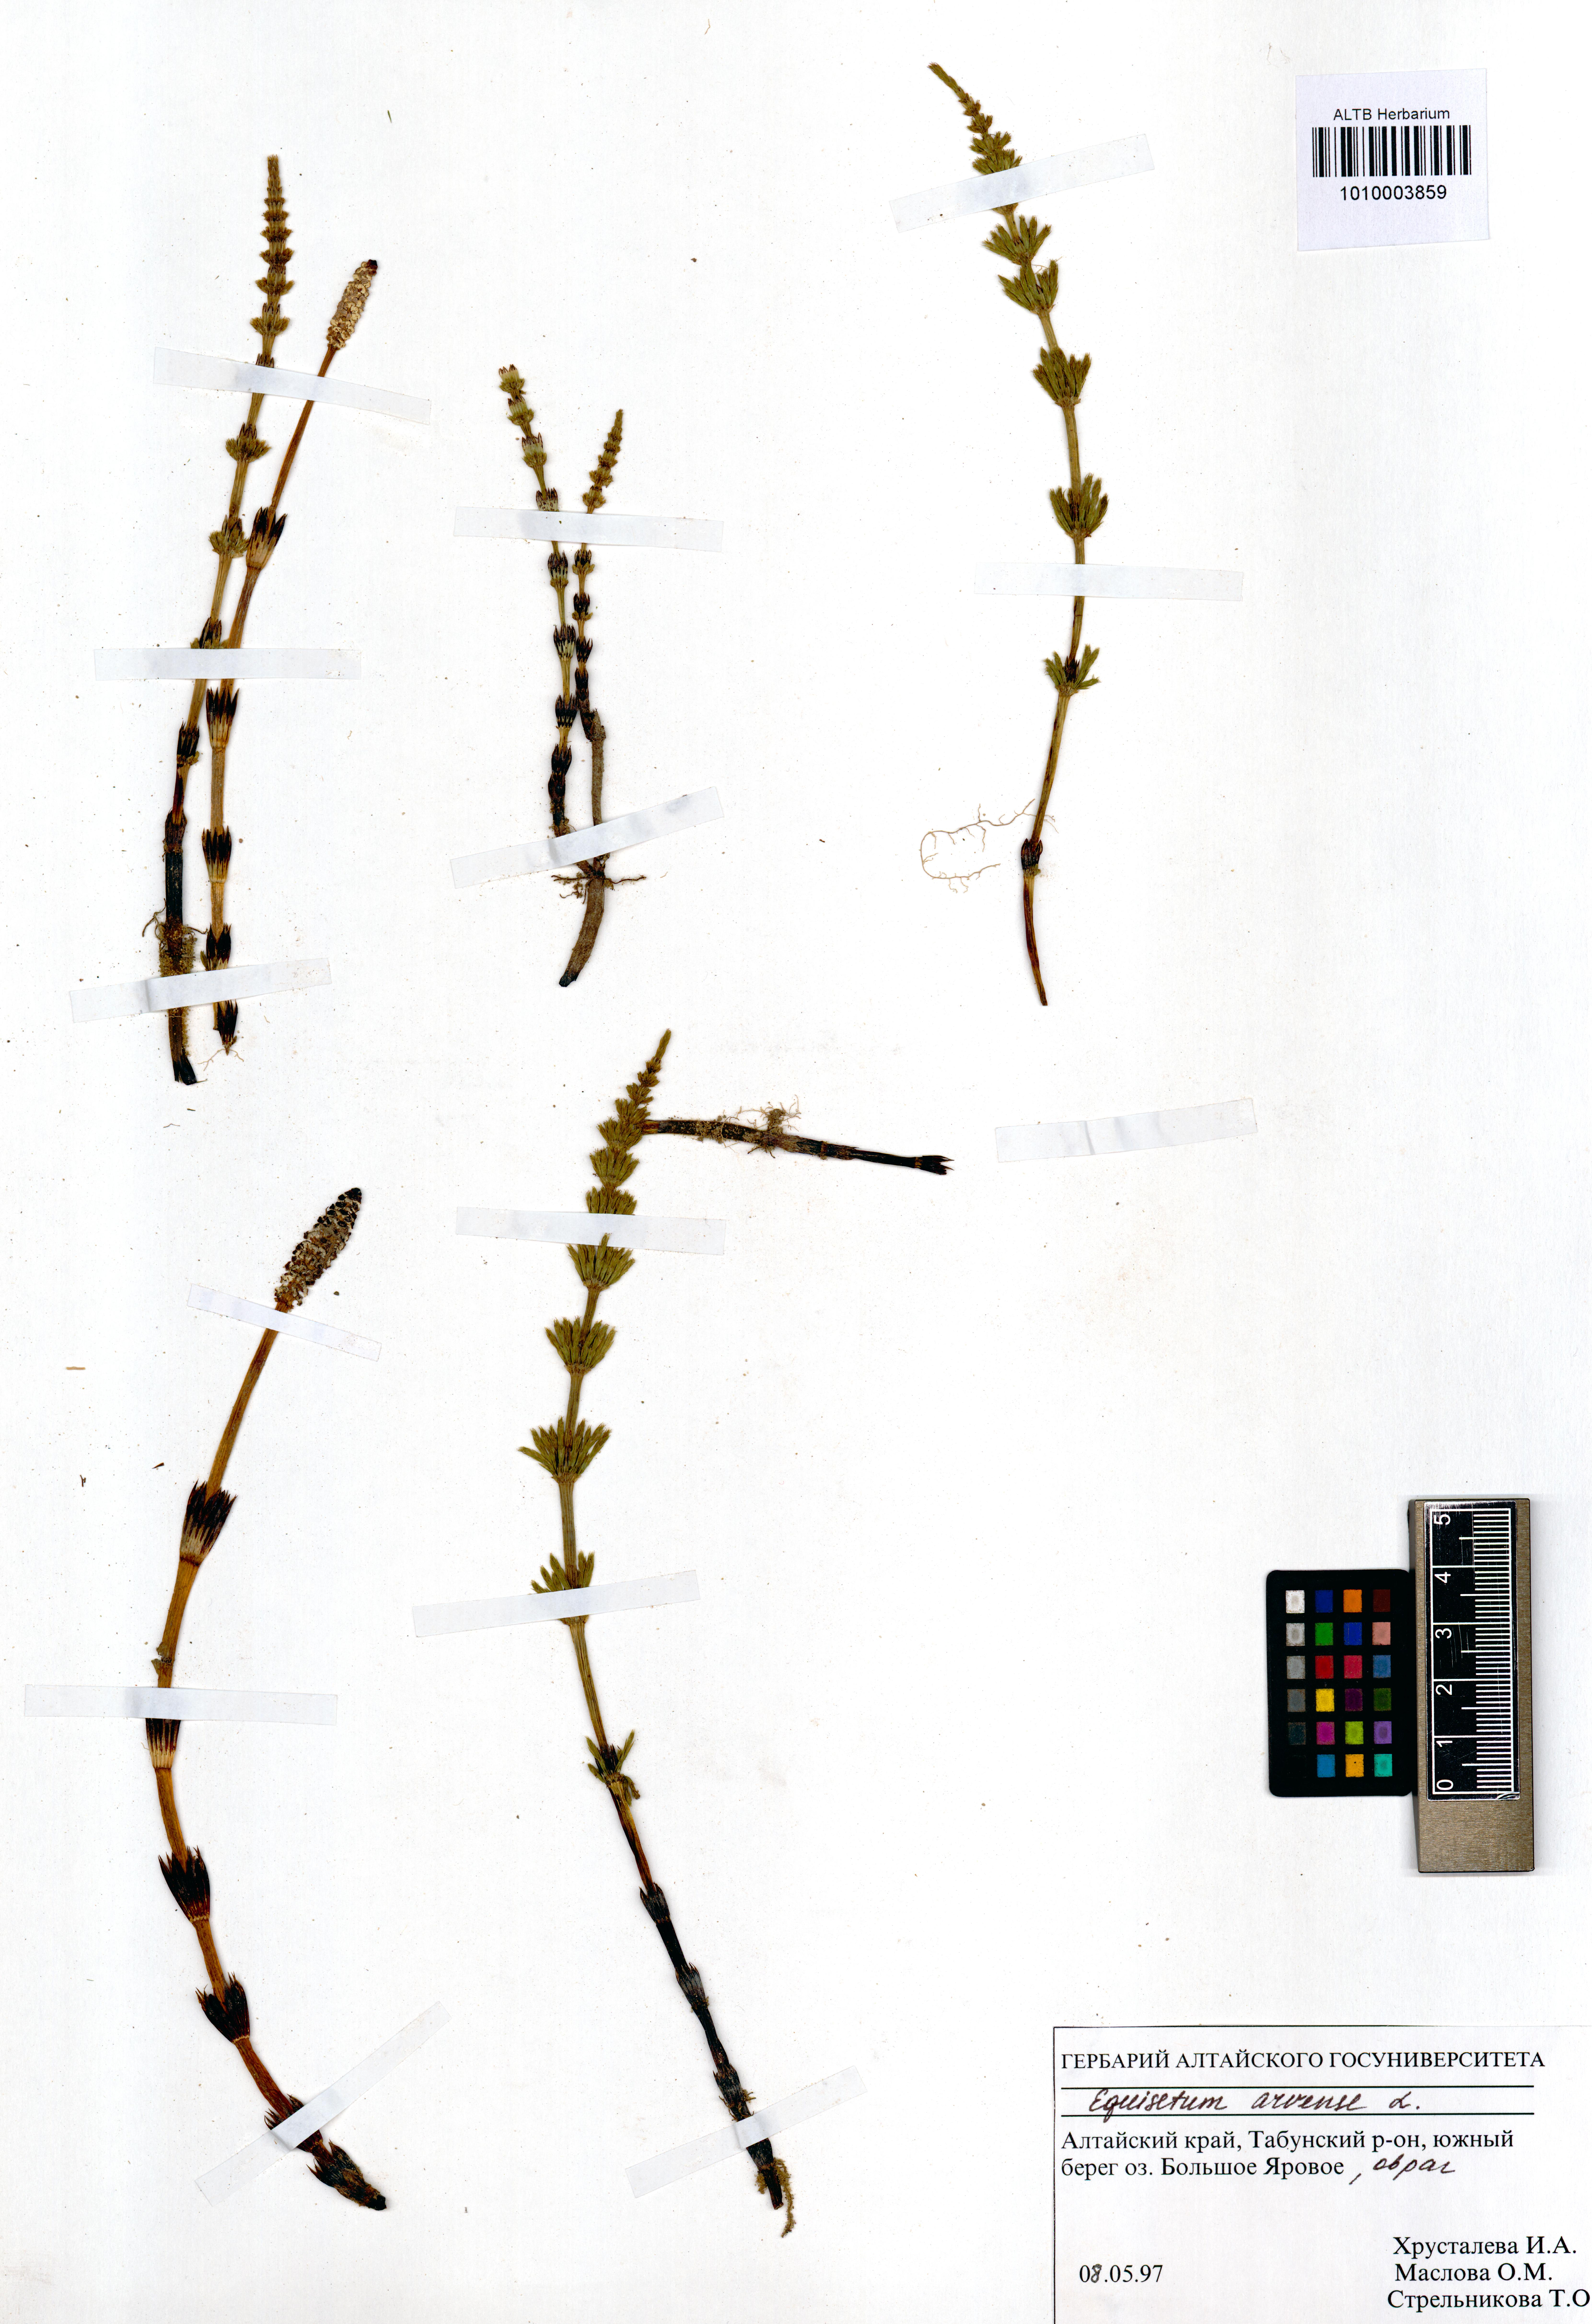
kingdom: Plantae
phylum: Tracheophyta
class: Polypodiopsida
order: Equisetales
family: Equisetaceae
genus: Equisetum
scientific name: Equisetum arvense
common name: Field horsetail
